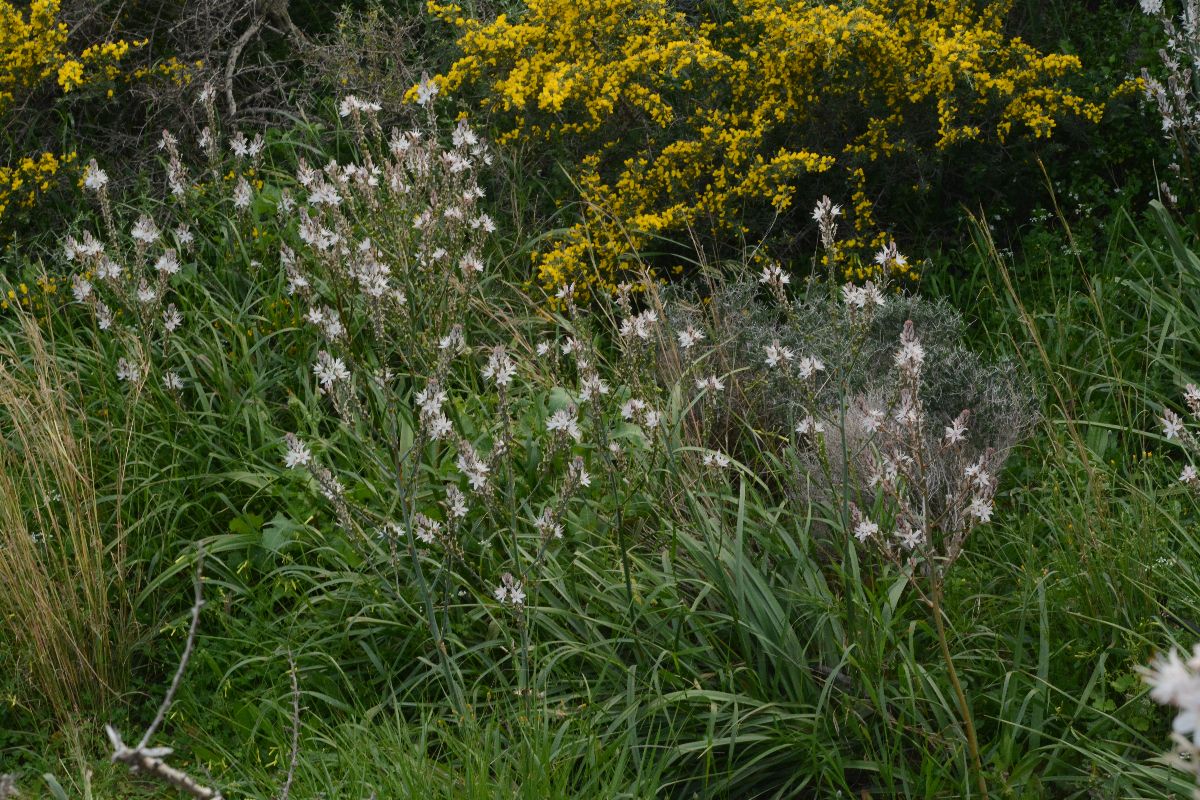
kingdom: Plantae
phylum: Tracheophyta
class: Liliopsida
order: Asparagales
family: Asphodelaceae
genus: Asphodelus
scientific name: Asphodelus ramosus
